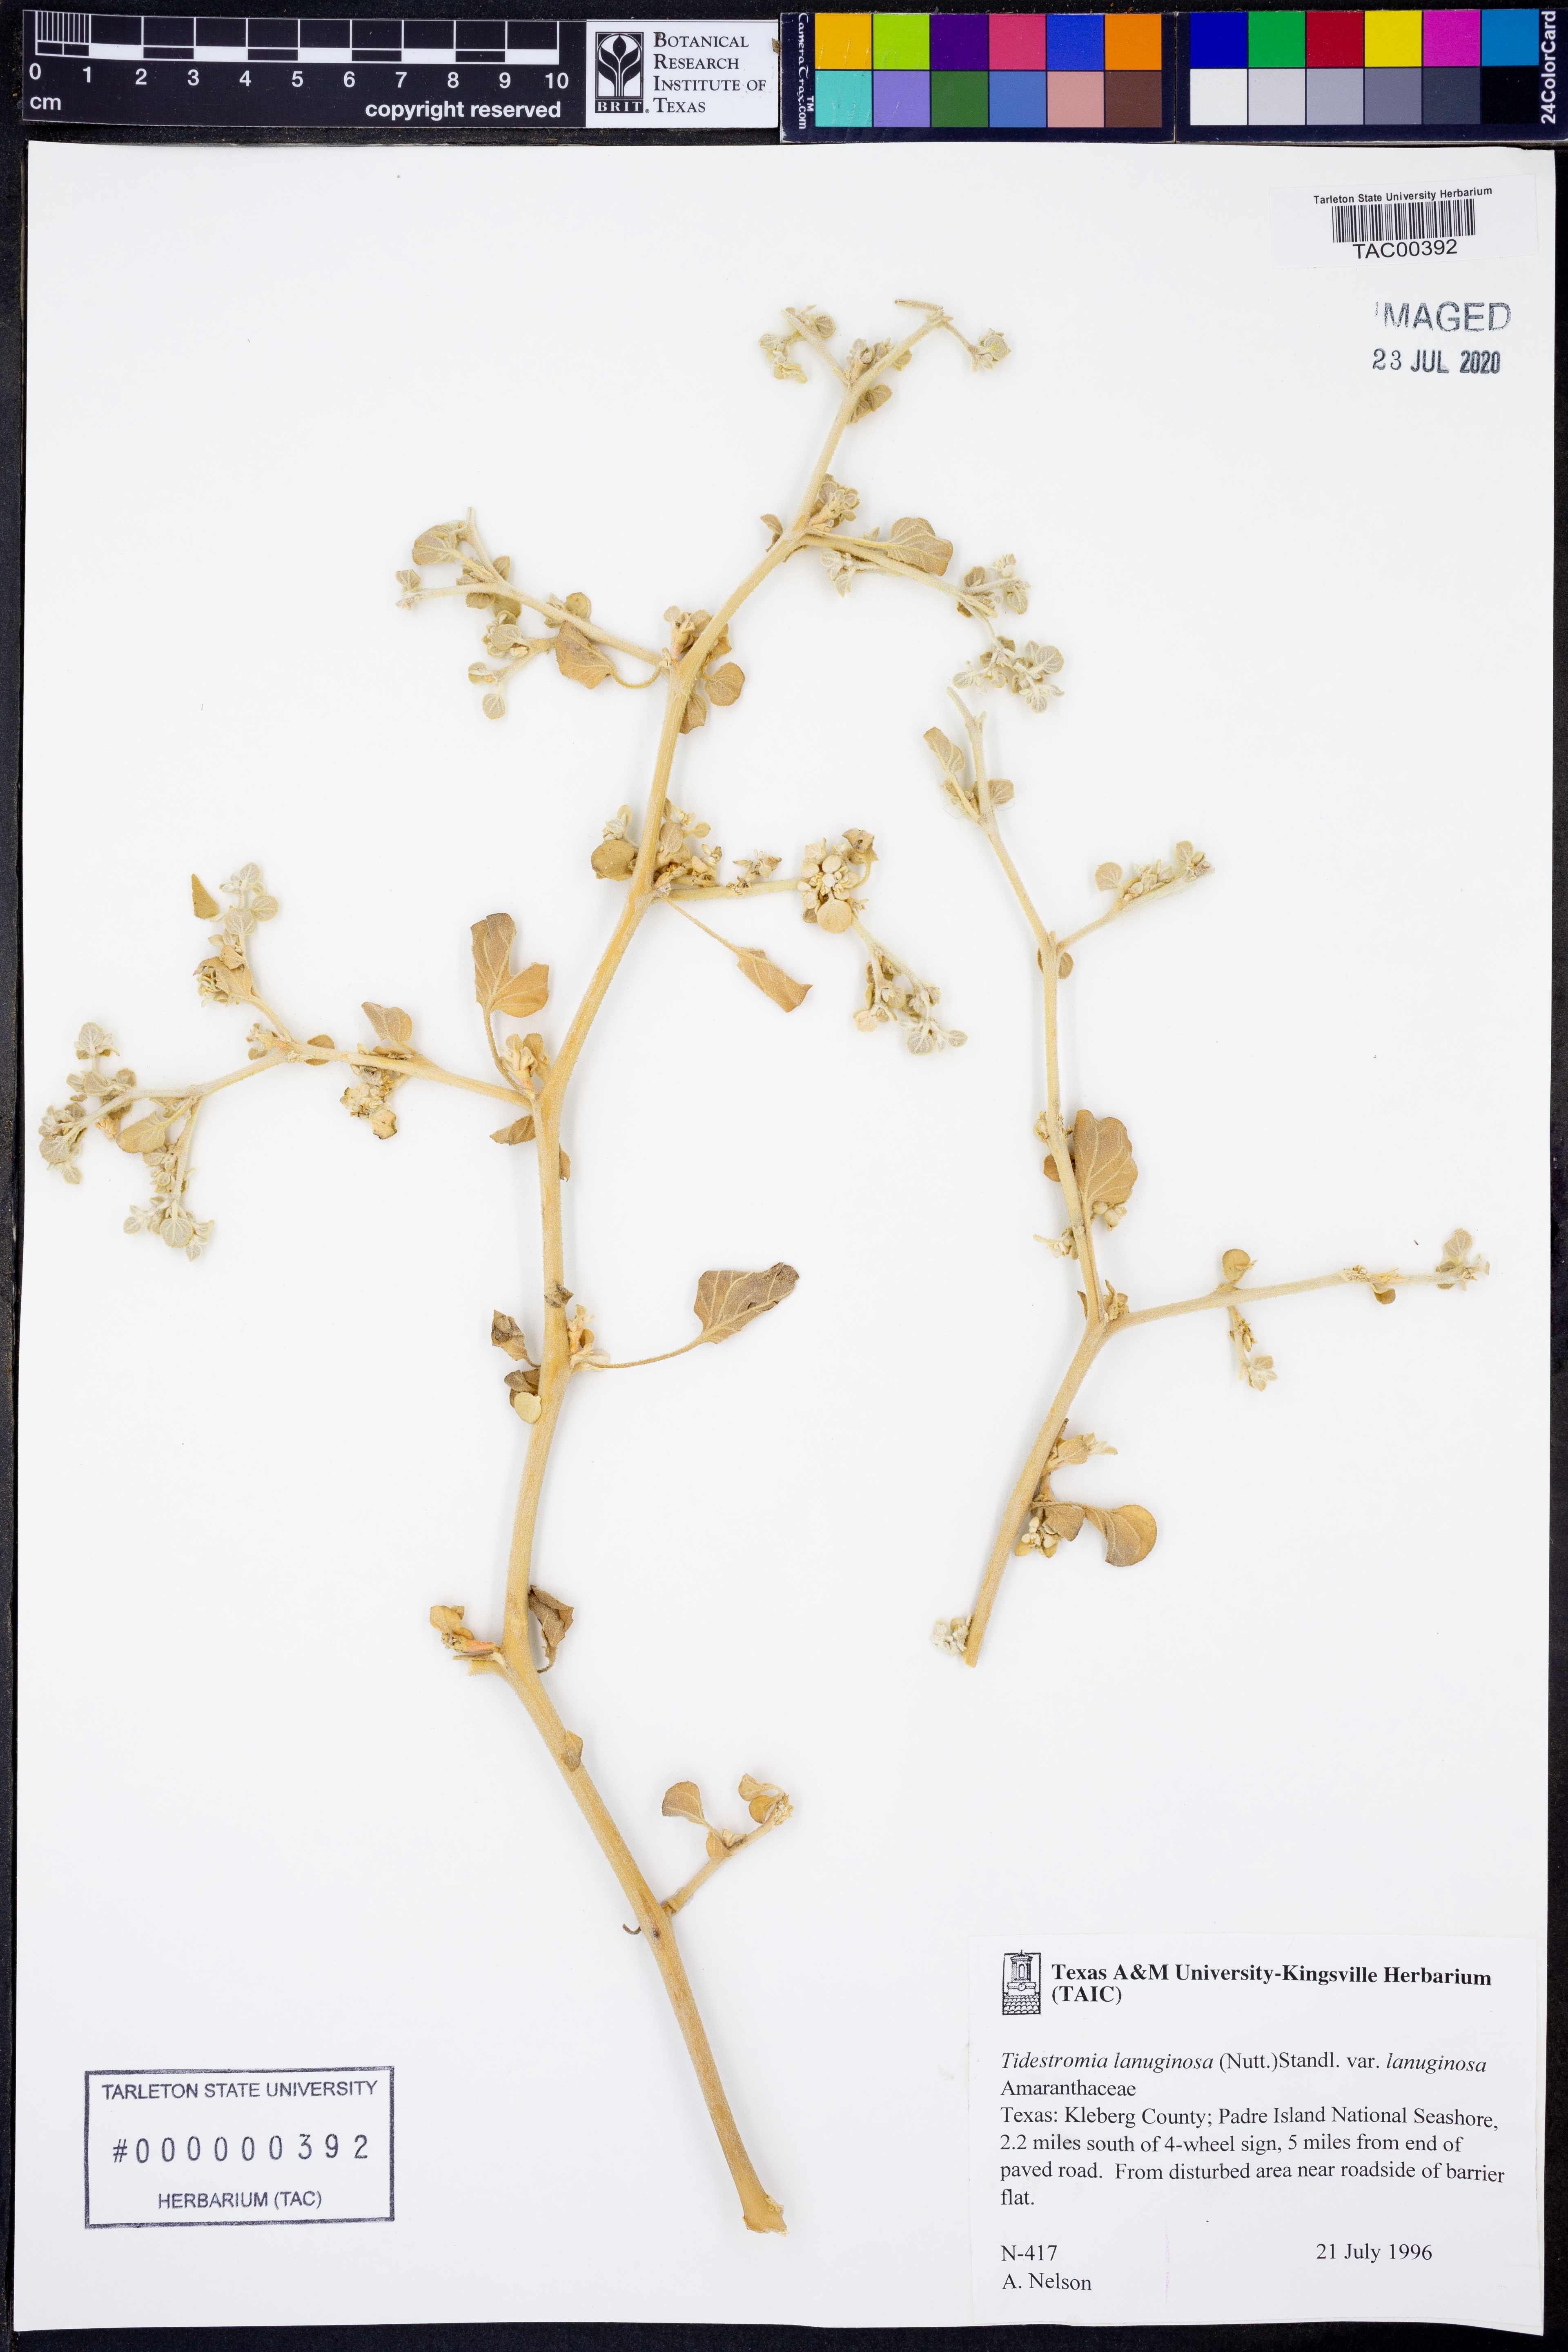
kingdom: Plantae
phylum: Tracheophyta
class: Magnoliopsida
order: Caryophyllales
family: Amaranthaceae
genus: Tidestromia
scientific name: Tidestromia lanuginosa
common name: Woolly tidestromia
